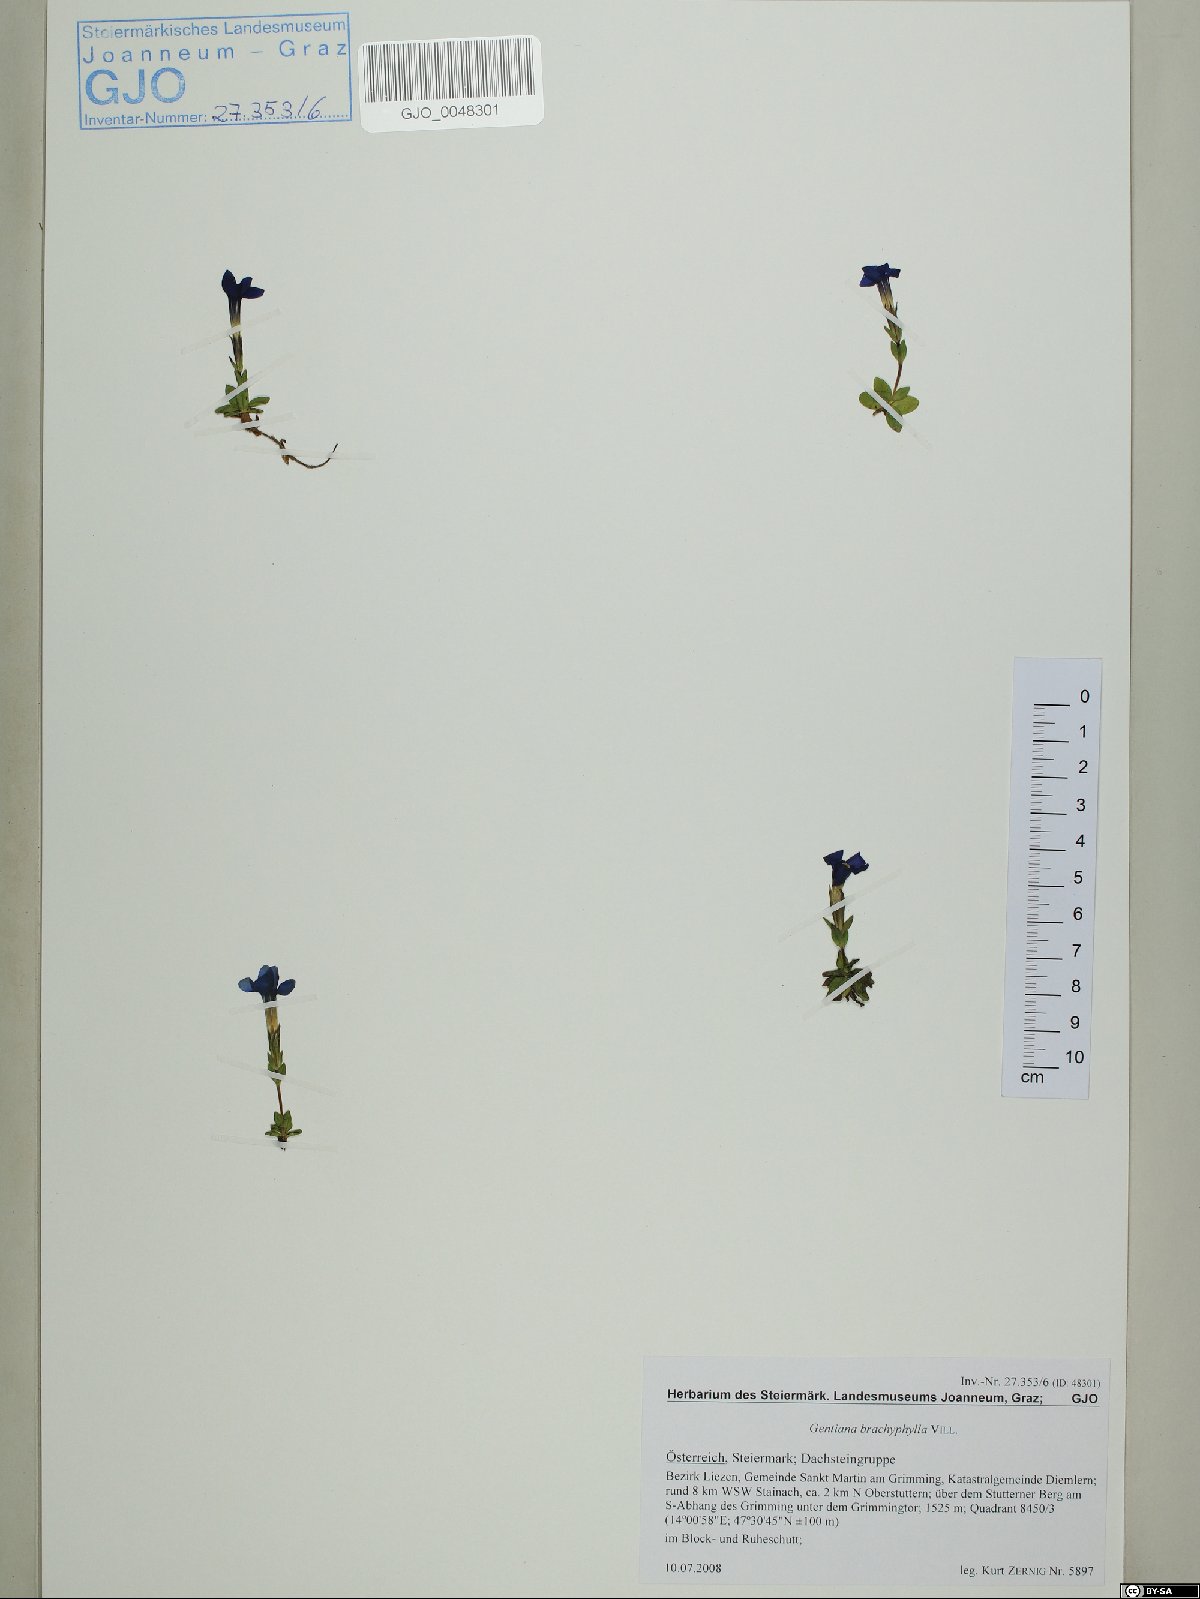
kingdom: Plantae
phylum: Tracheophyta
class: Magnoliopsida
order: Gentianales
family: Gentianaceae
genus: Gentiana
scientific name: Gentiana brachyphylla
